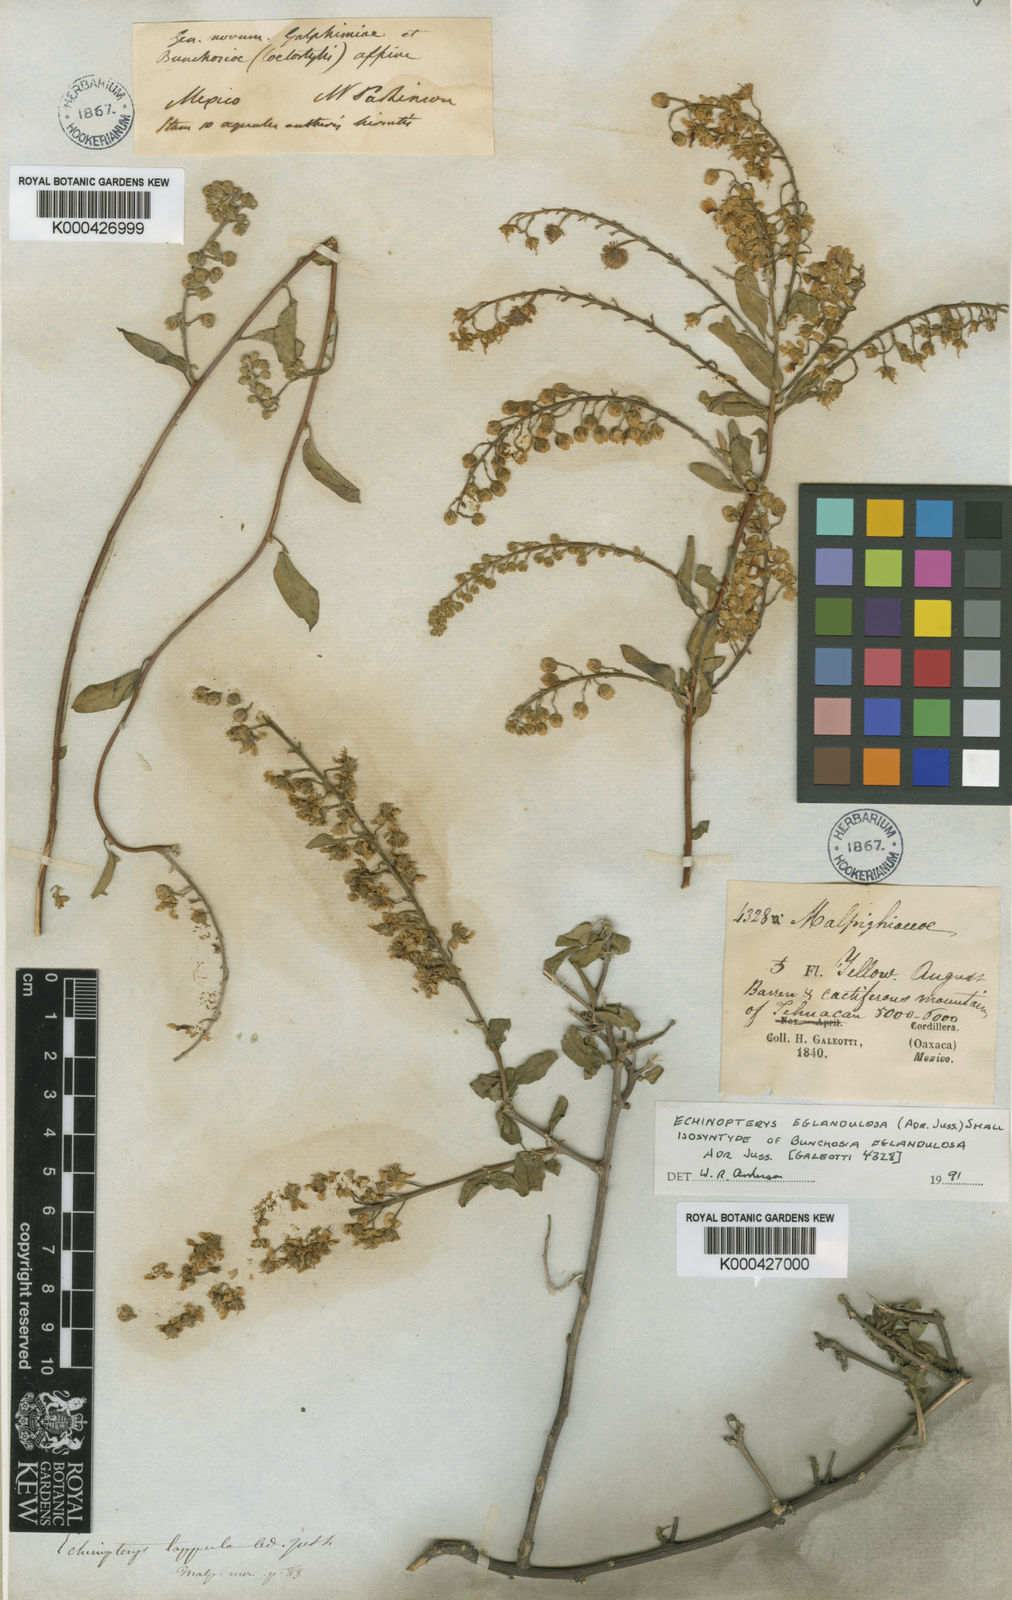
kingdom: Plantae
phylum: Tracheophyta
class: Magnoliopsida
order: Malpighiales
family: Malpighiaceae
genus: Echinopterys
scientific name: Echinopterys eglandulosa
